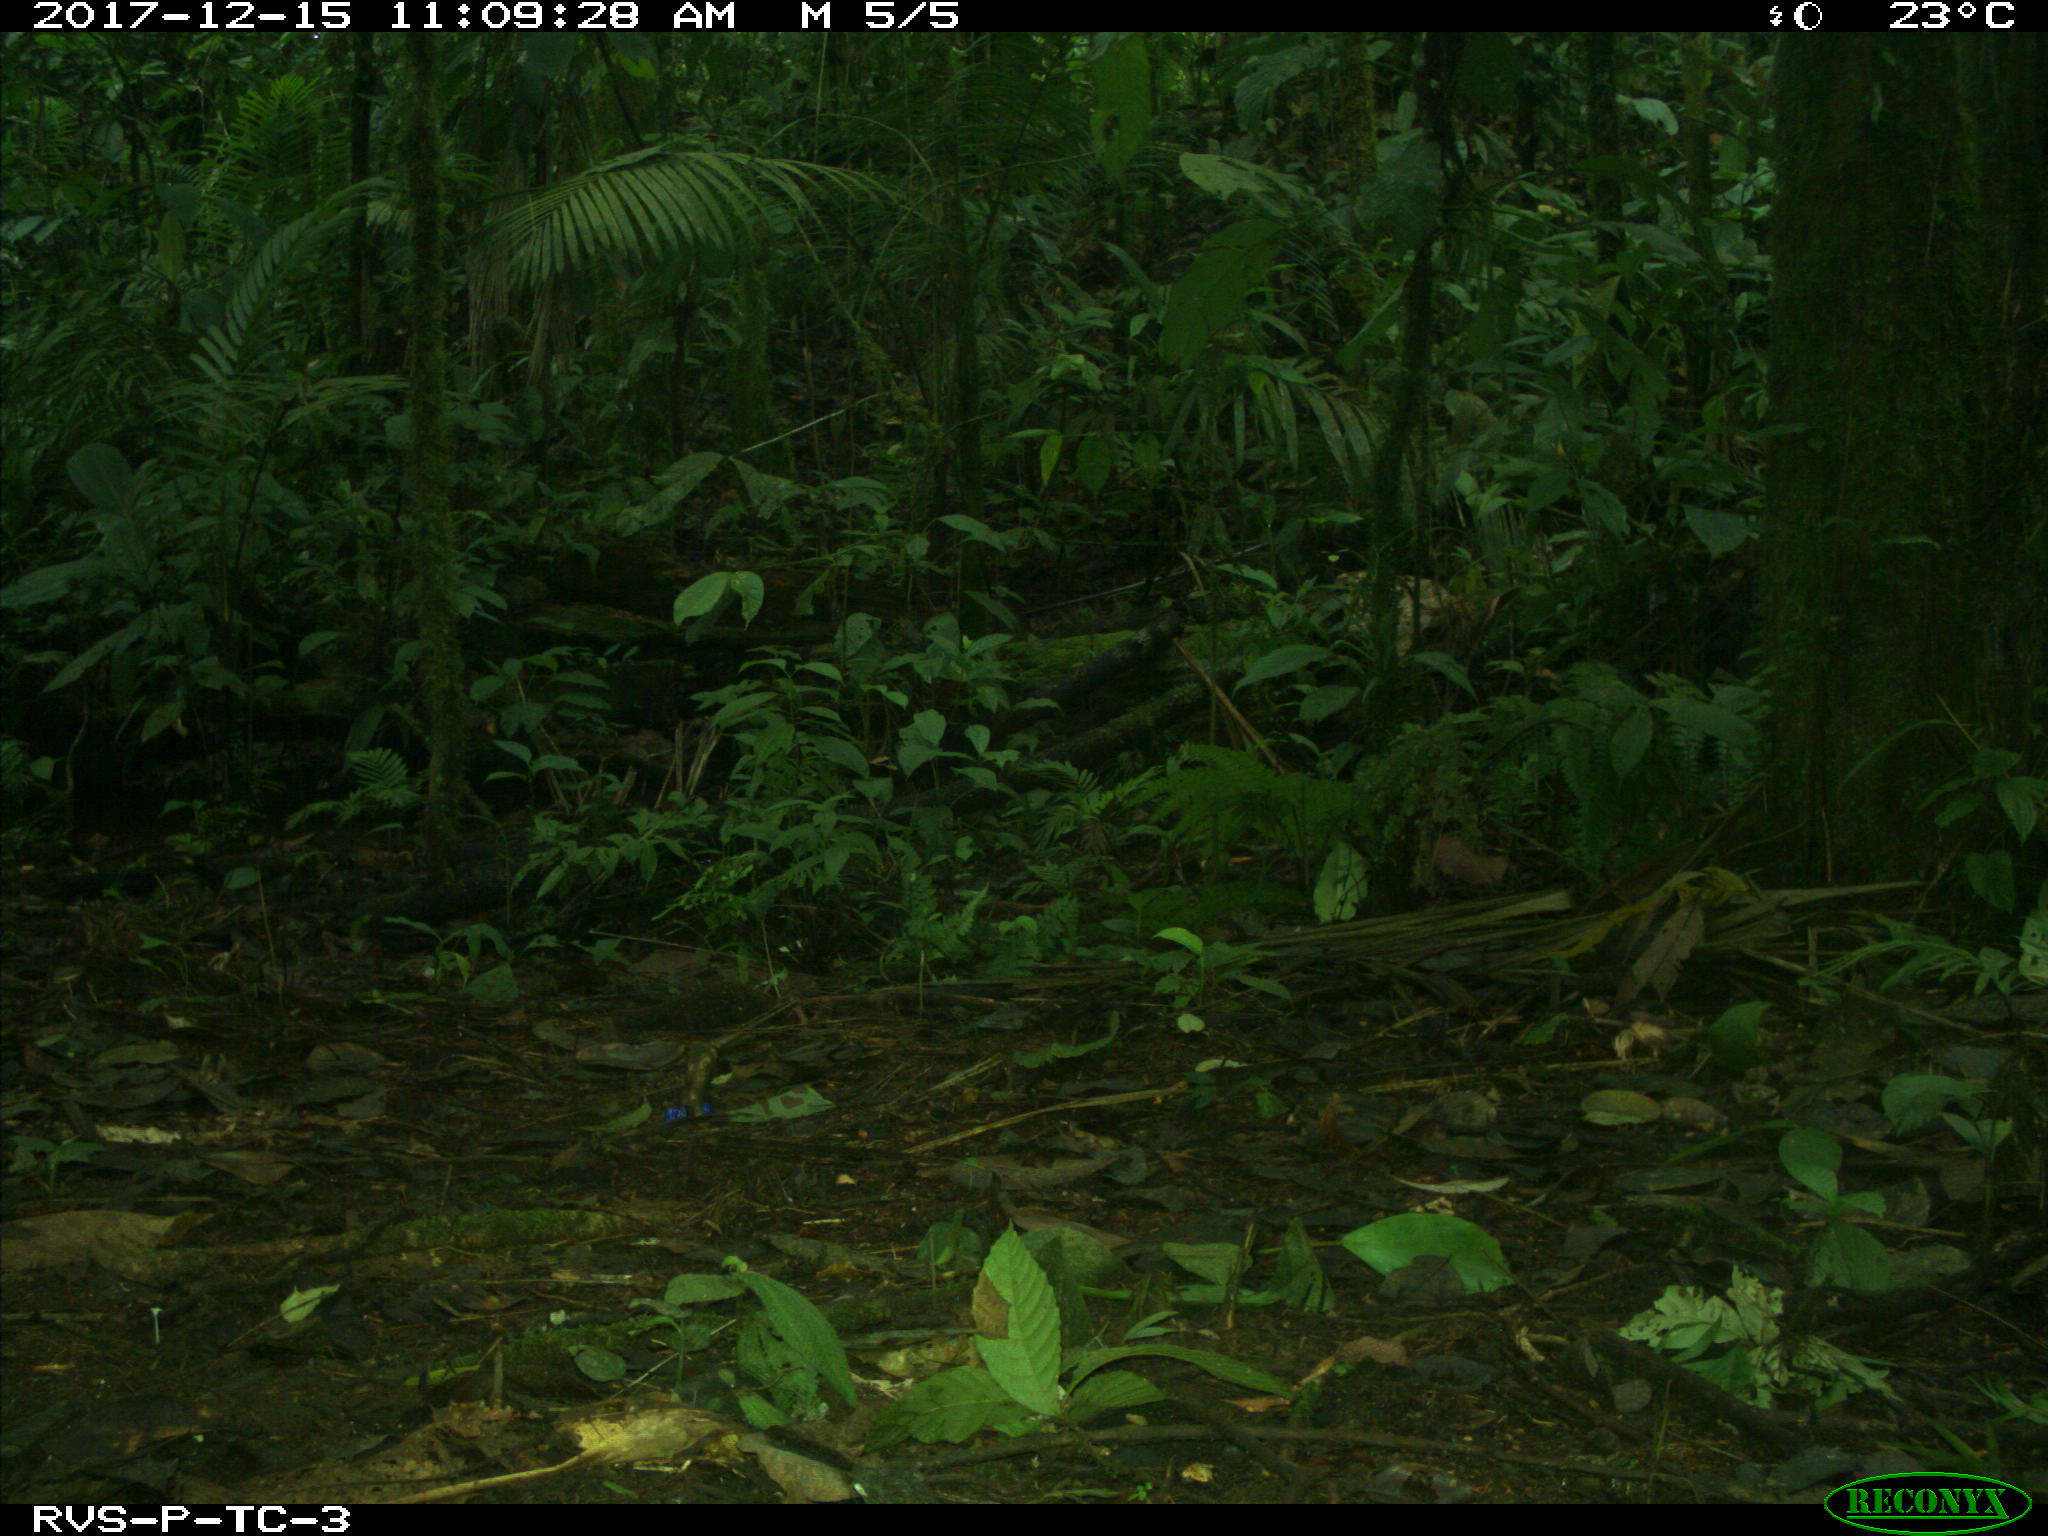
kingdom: Animalia
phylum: Chordata
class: Mammalia
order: Rodentia
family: Dasyproctidae
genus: Dasyprocta
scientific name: Dasyprocta punctata
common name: Central american agouti
